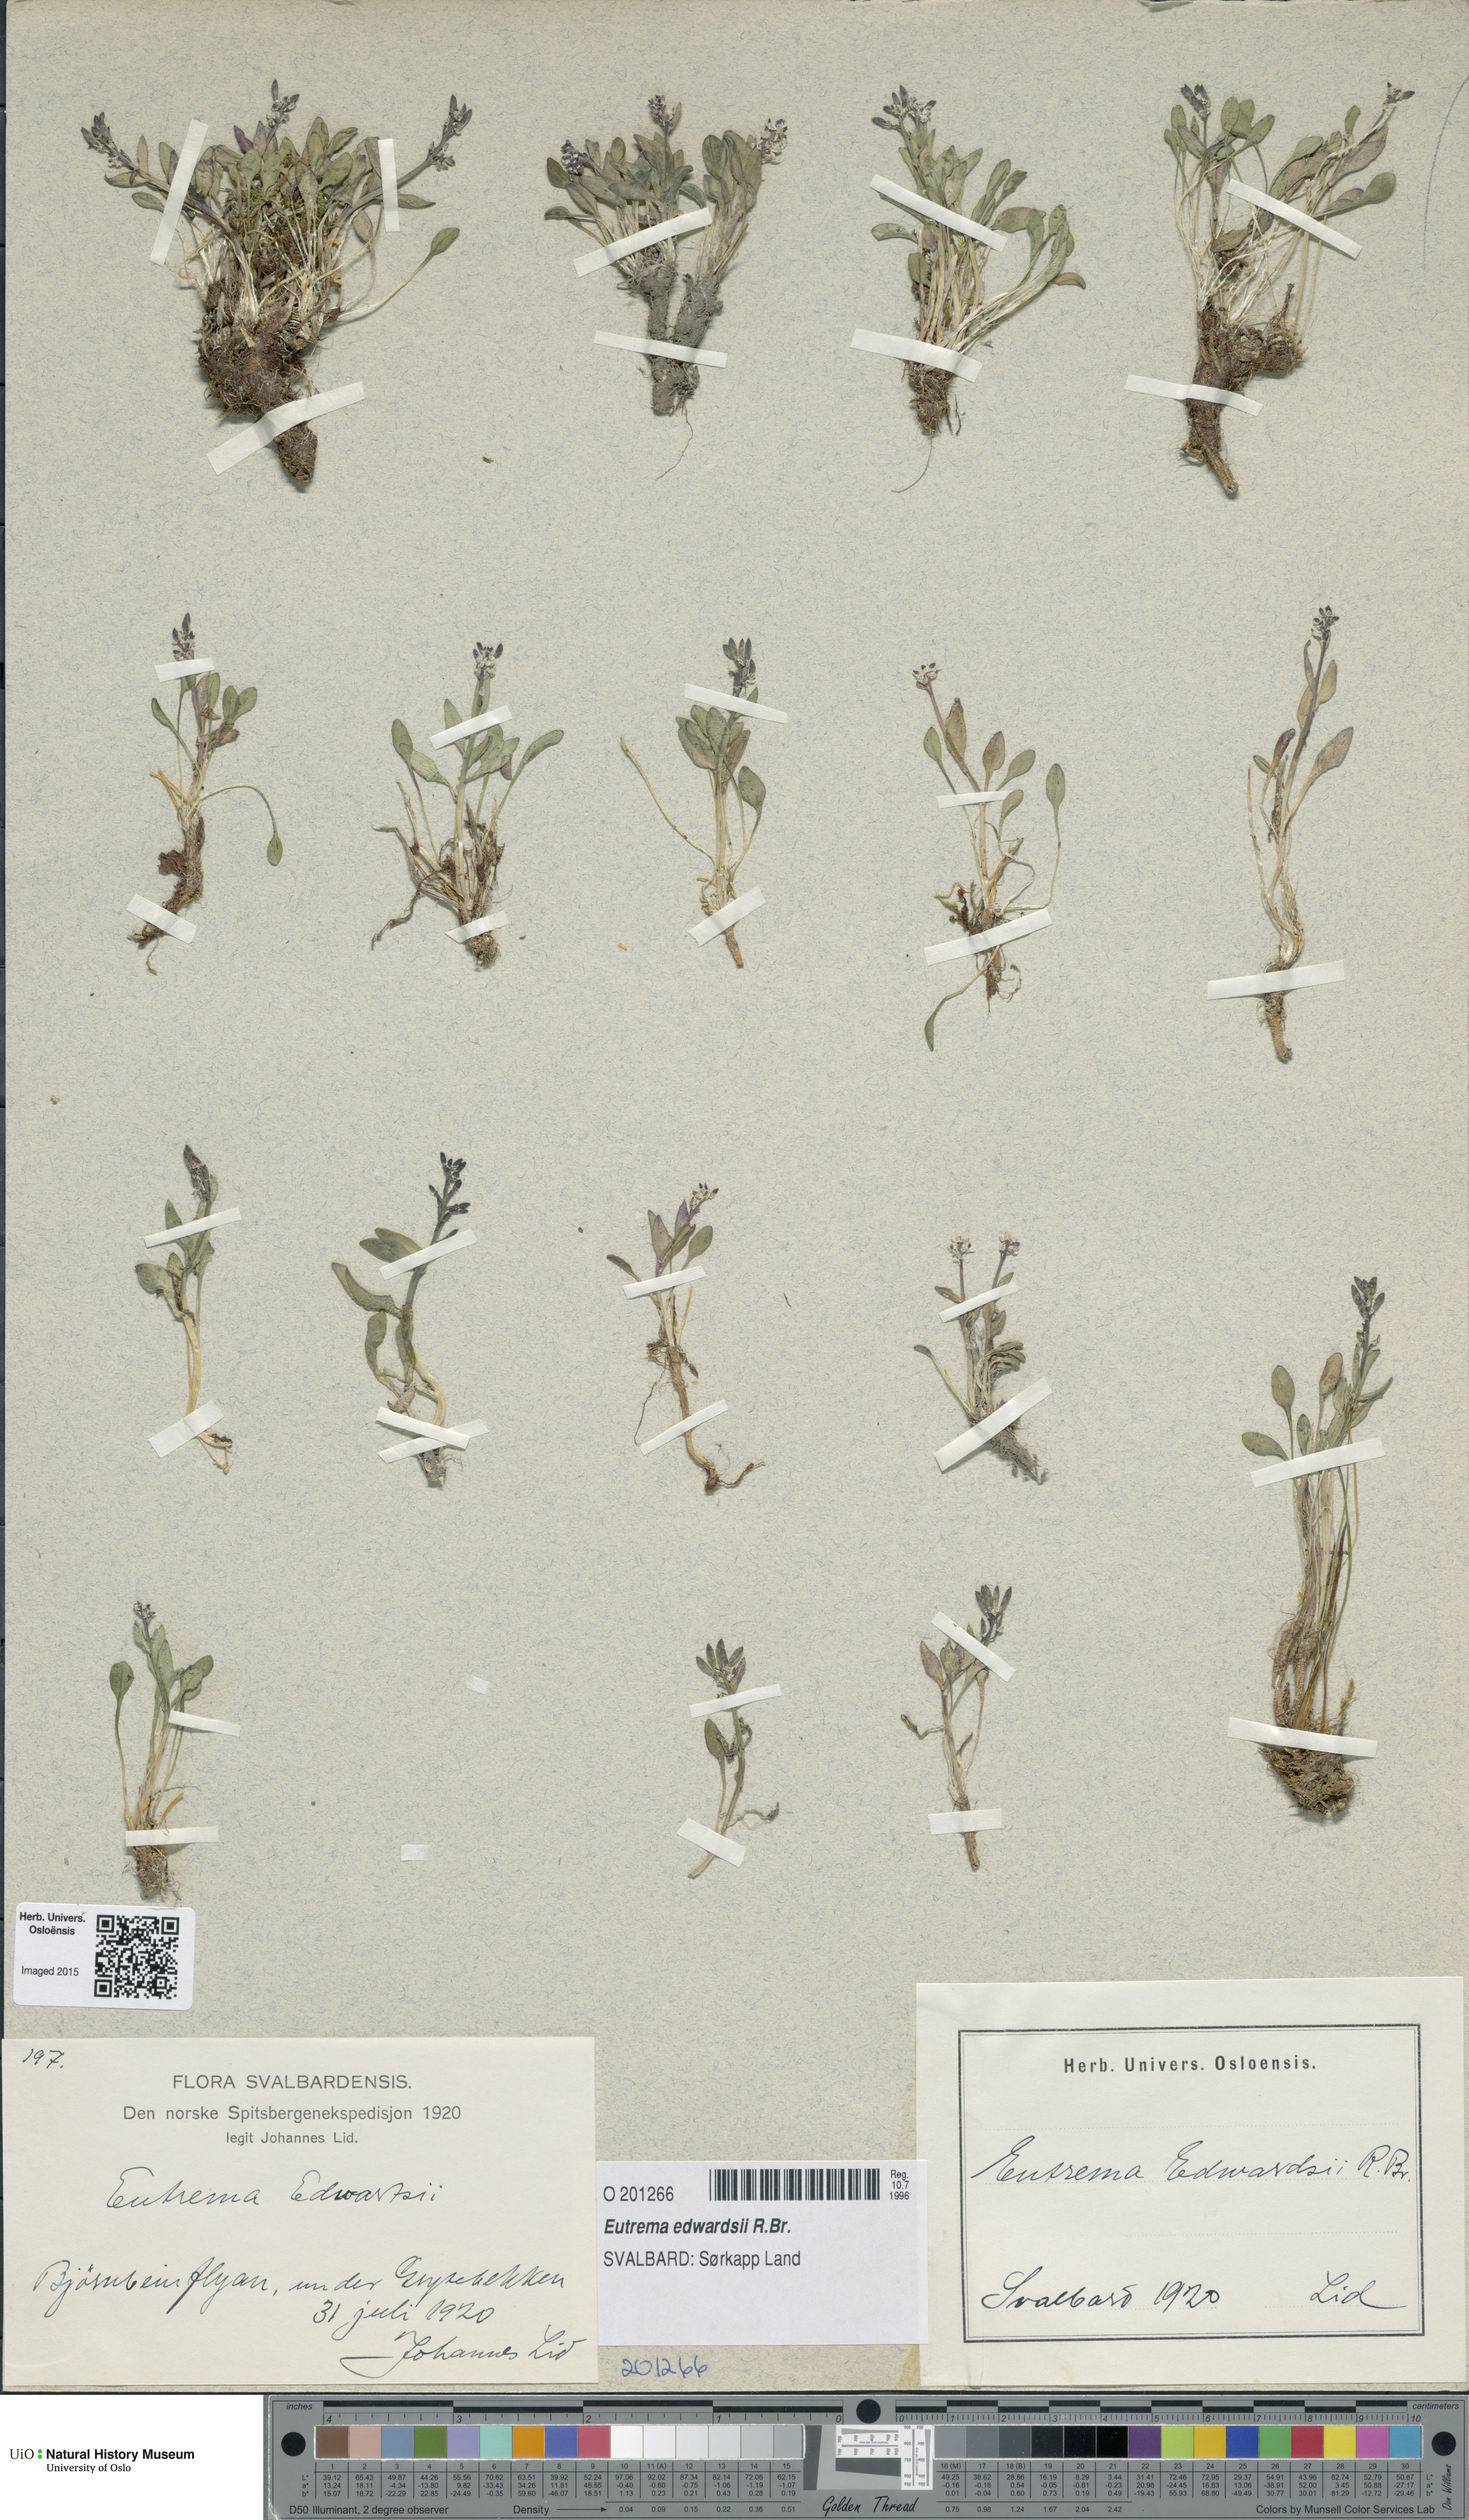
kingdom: Plantae
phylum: Tracheophyta
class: Magnoliopsida
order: Brassicales
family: Brassicaceae
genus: Eutrema
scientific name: Eutrema edwardsii
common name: Penland alpine fen mustard
